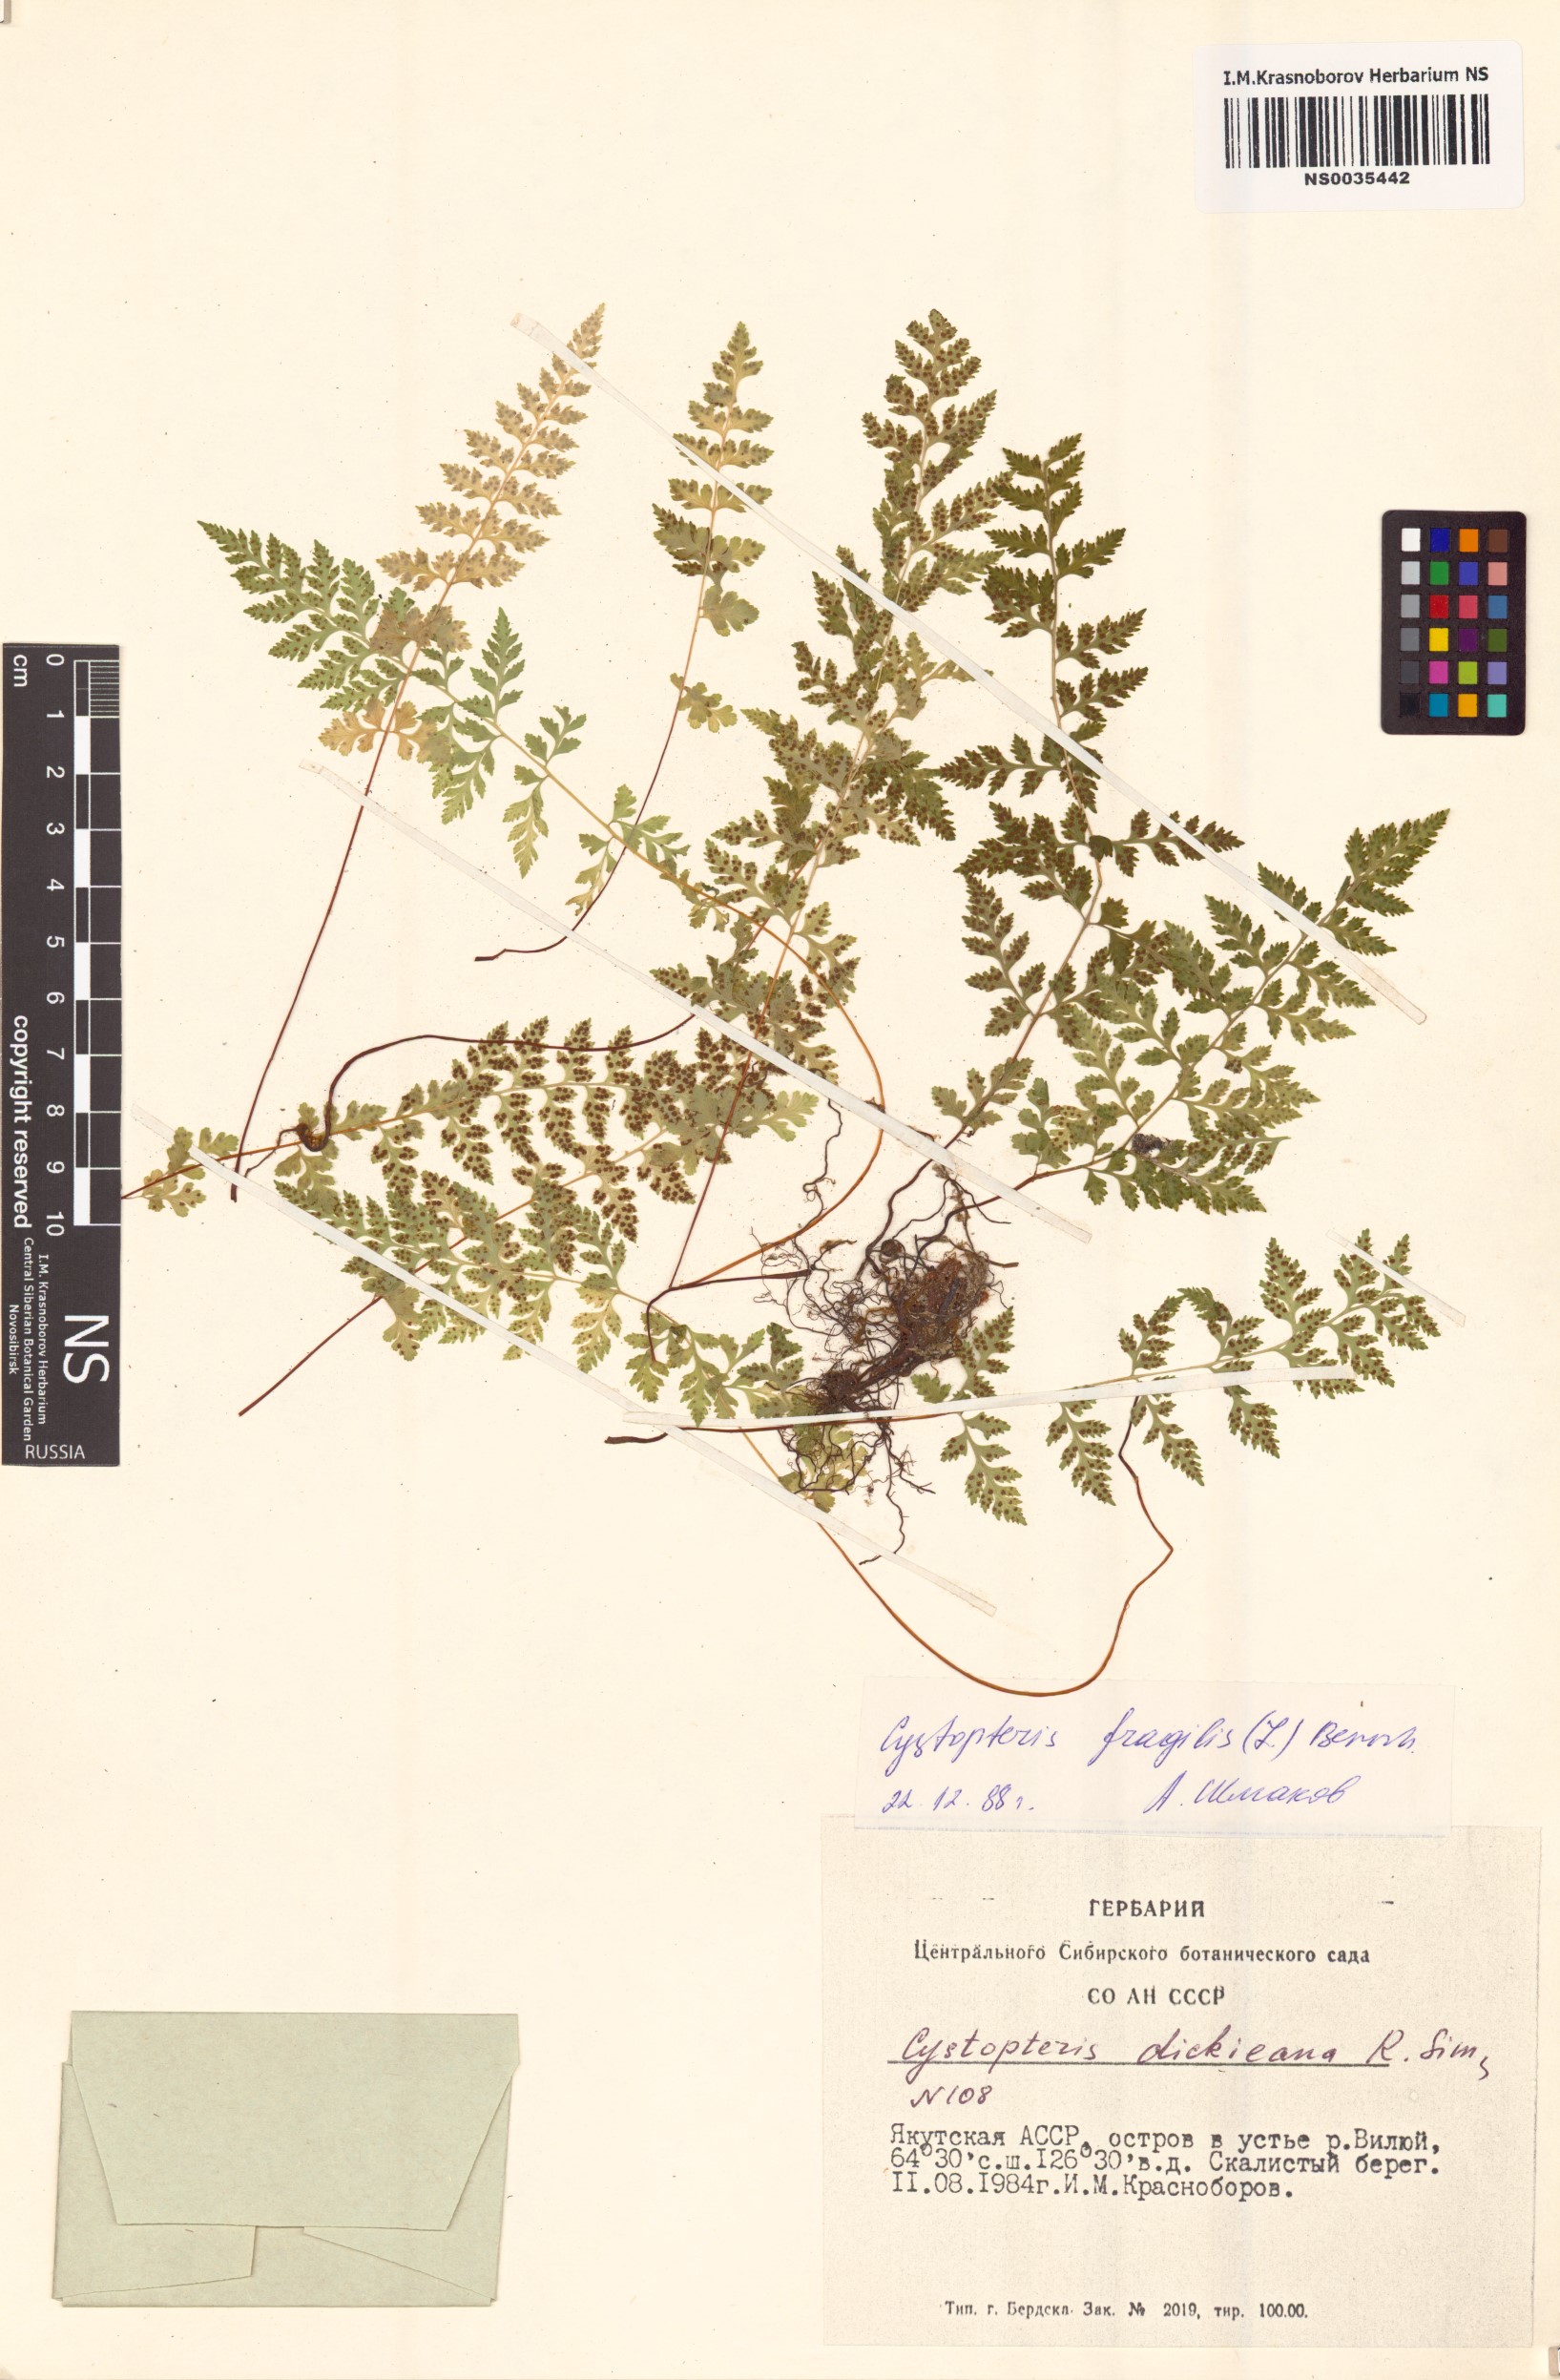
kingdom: Plantae
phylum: Tracheophyta
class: Polypodiopsida
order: Polypodiales
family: Cystopteridaceae
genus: Cystopteris
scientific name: Cystopteris fragilis
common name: Brittle bladder fern
